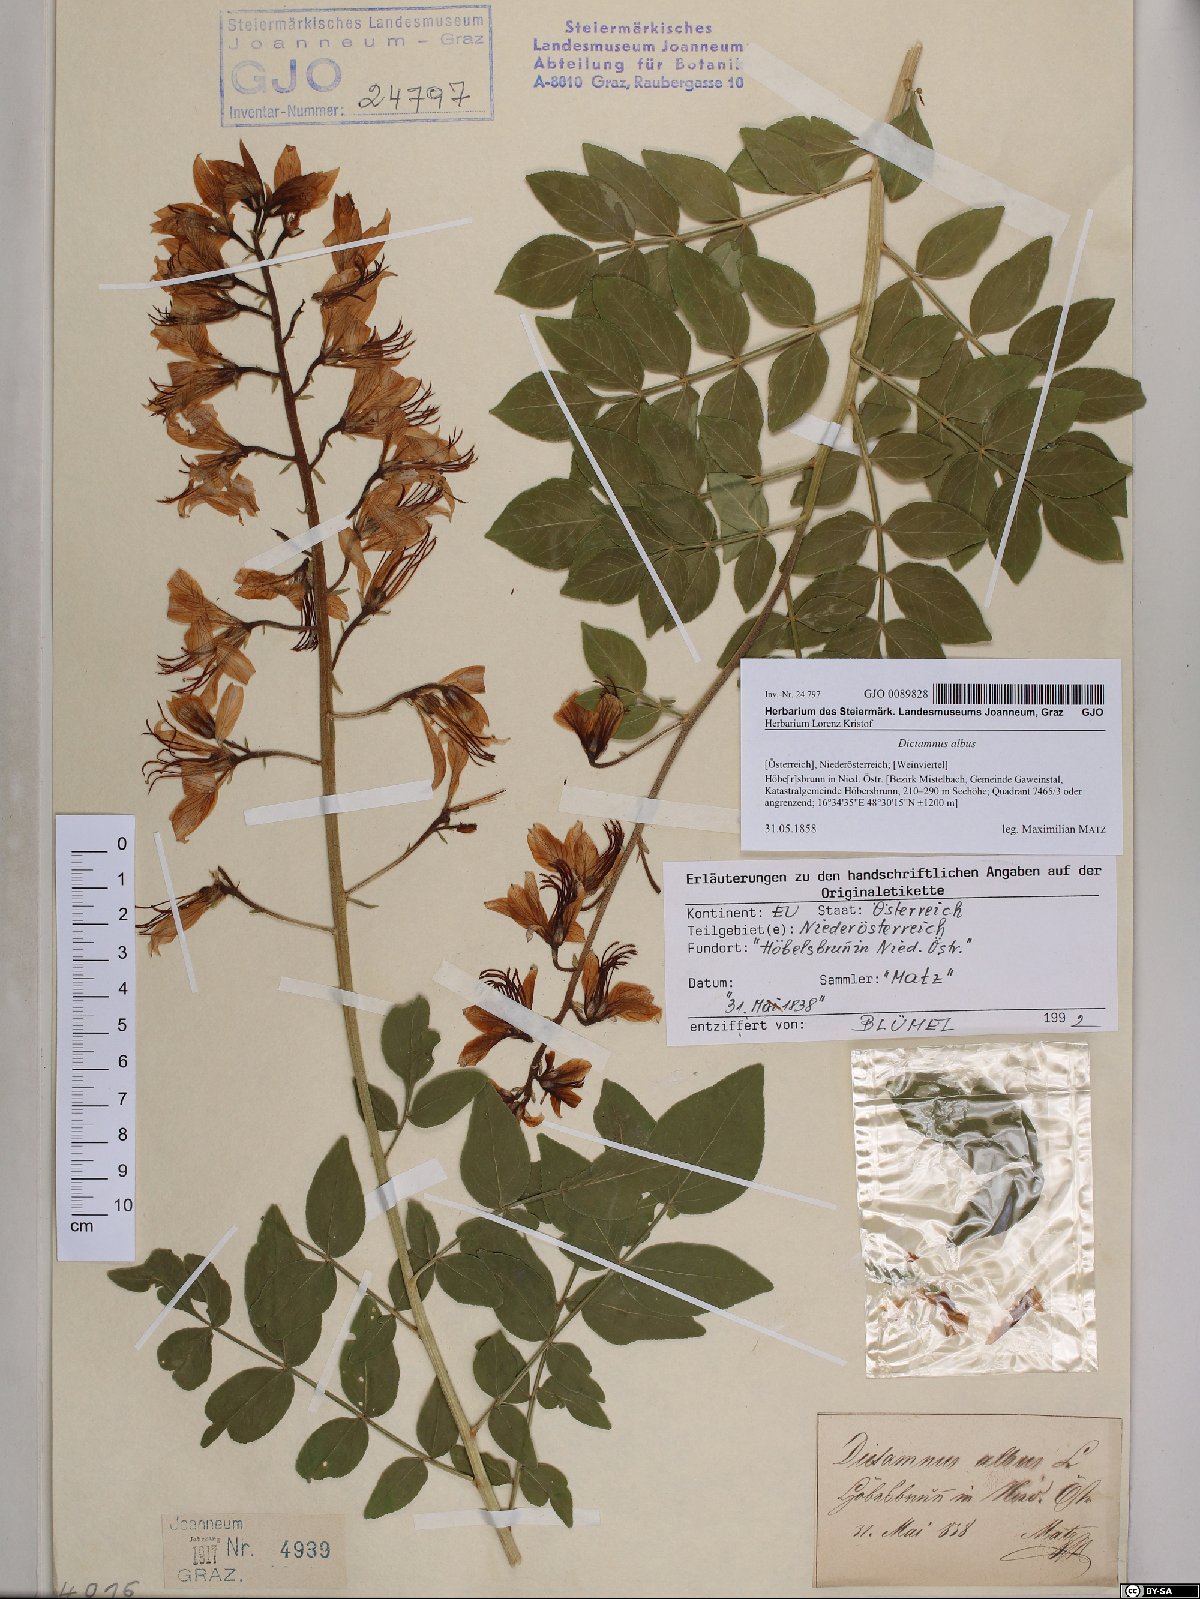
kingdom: Plantae
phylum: Tracheophyta
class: Magnoliopsida
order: Sapindales
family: Rutaceae
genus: Dictamnus
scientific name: Dictamnus albus
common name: Gasplant
